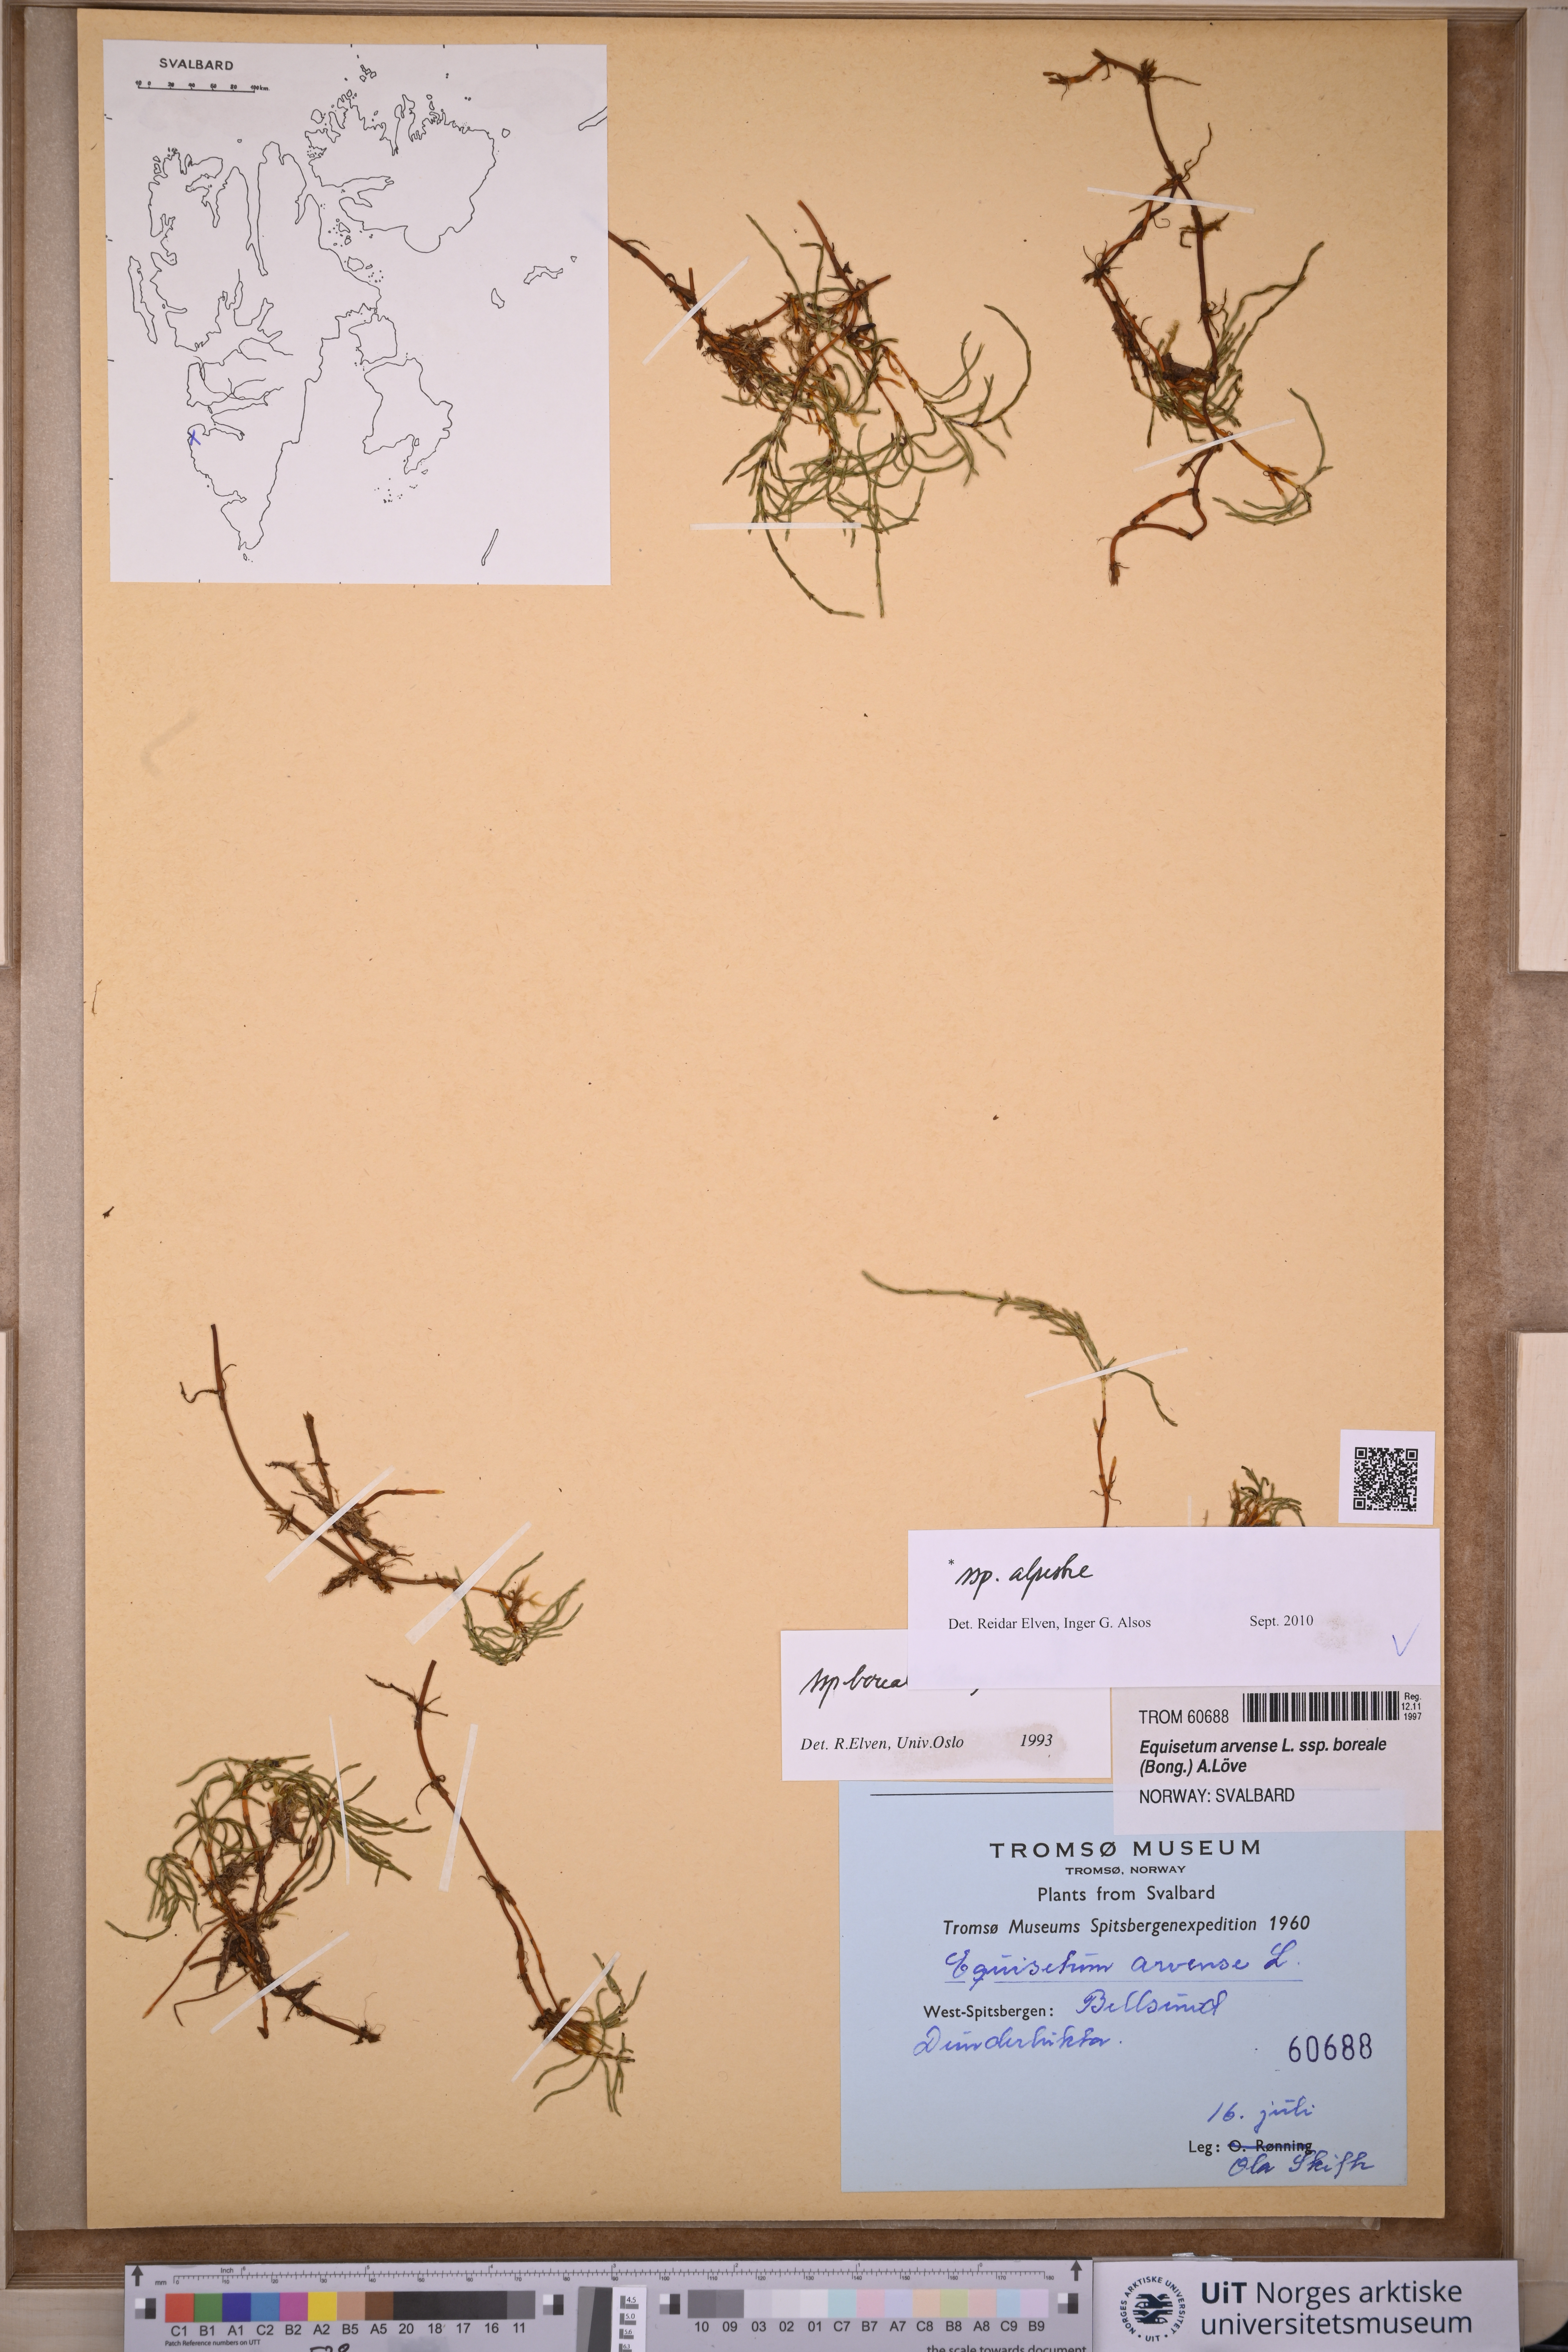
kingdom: Plantae
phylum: Tracheophyta
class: Polypodiopsida
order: Equisetales
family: Equisetaceae
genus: Equisetum
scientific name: Equisetum arvense
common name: Field horsetail
